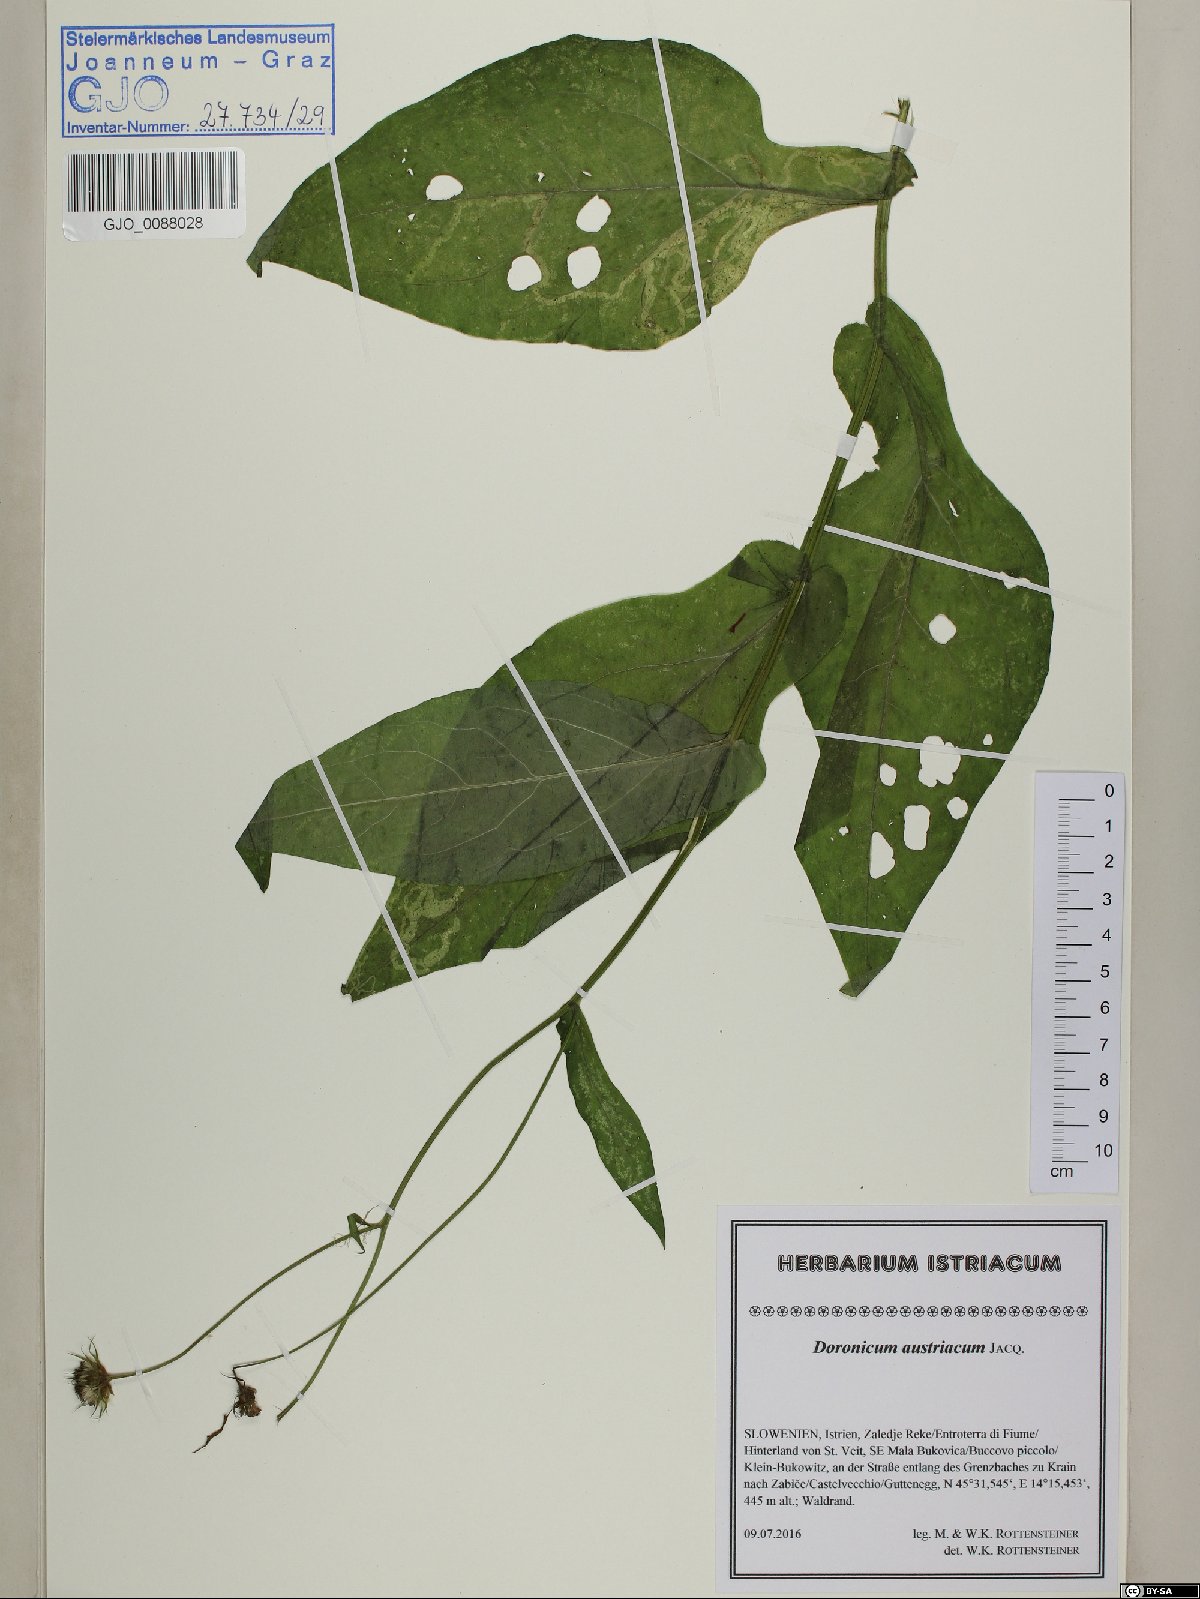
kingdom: Plantae
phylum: Tracheophyta
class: Magnoliopsida
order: Asterales
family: Asteraceae
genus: Doronicum
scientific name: Doronicum austriacum
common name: Austrian leopard's-bane
